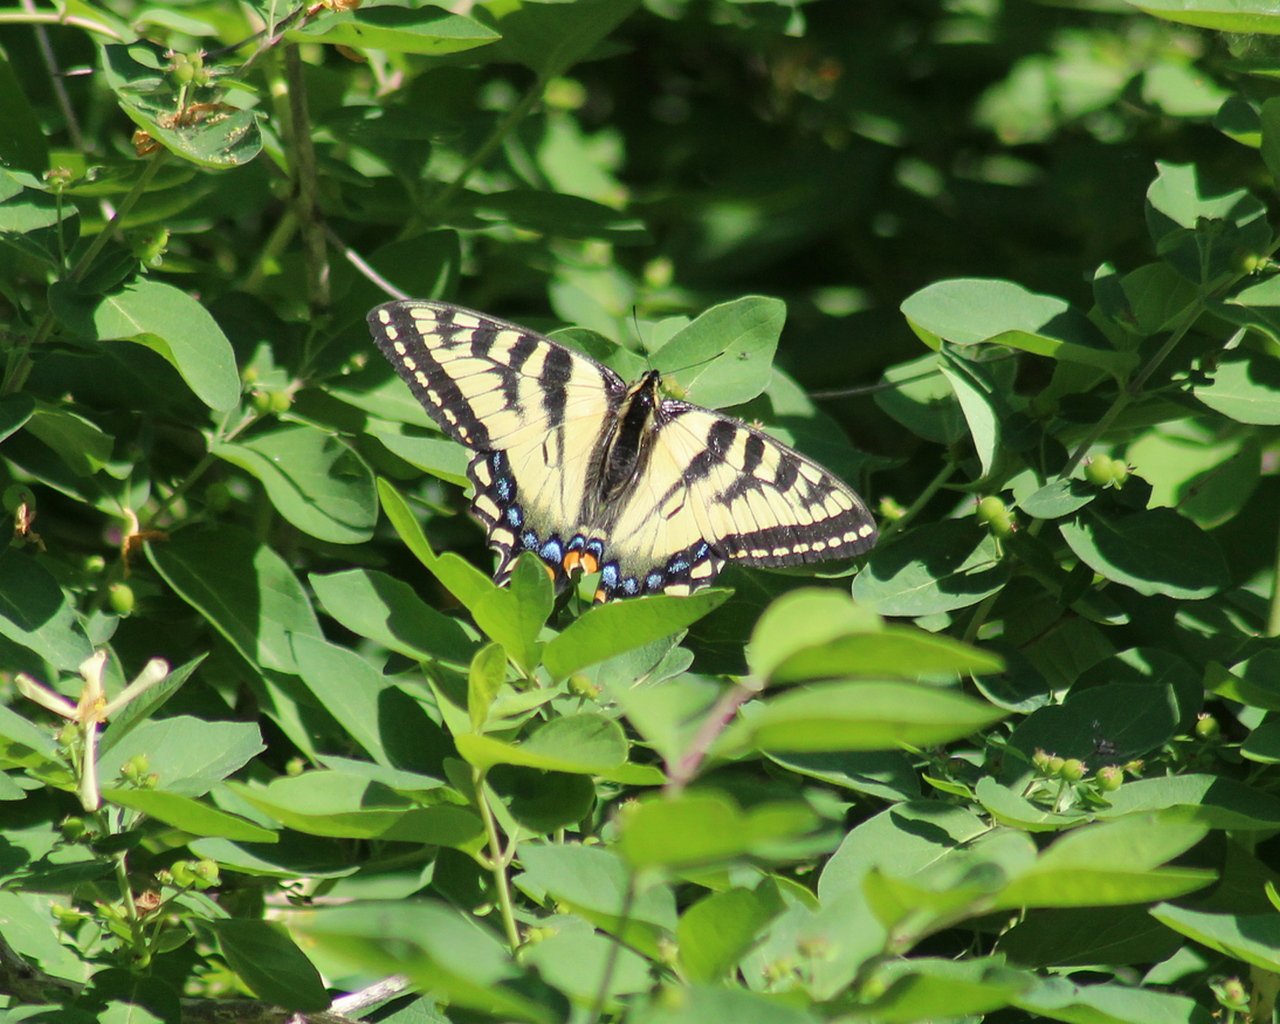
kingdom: Animalia
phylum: Arthropoda
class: Insecta
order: Lepidoptera
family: Papilionidae
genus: Pterourus
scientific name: Pterourus canadensis
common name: Canadian Tiger Swallowtail
